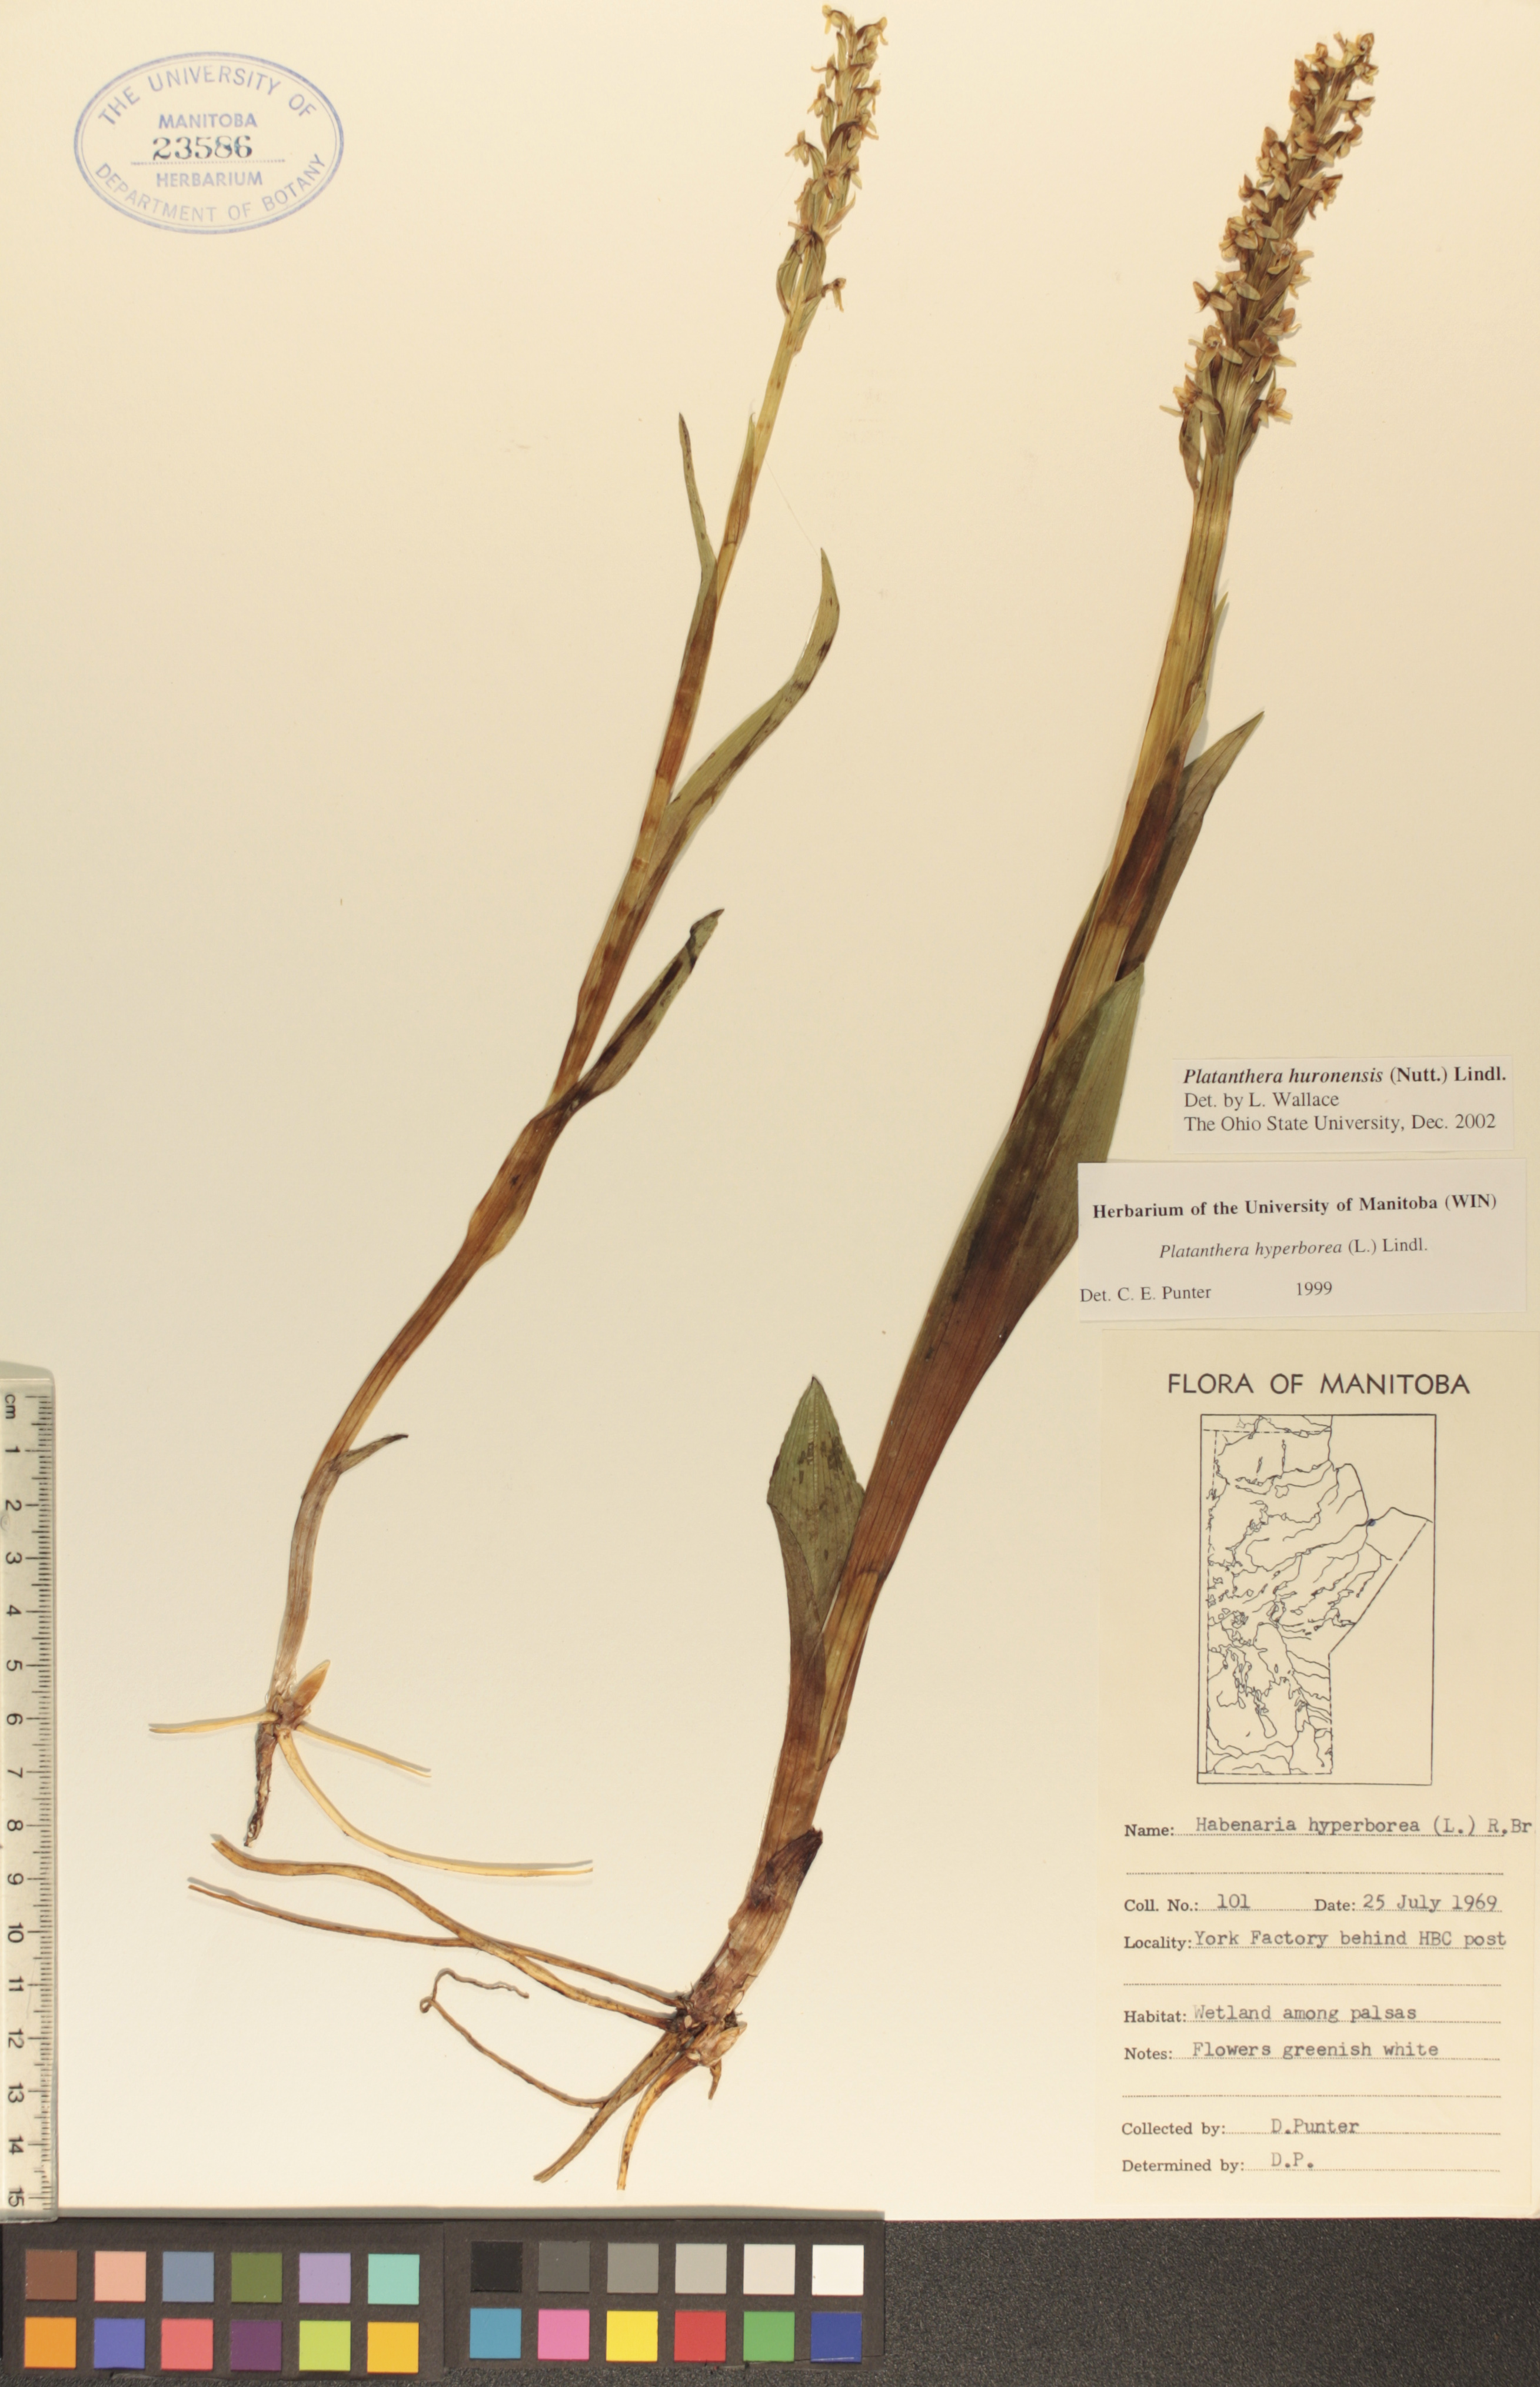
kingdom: Plantae
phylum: Tracheophyta
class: Liliopsida
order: Asparagales
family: Orchidaceae
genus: Platanthera
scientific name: Platanthera huronensis
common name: Fragrant green orchid
